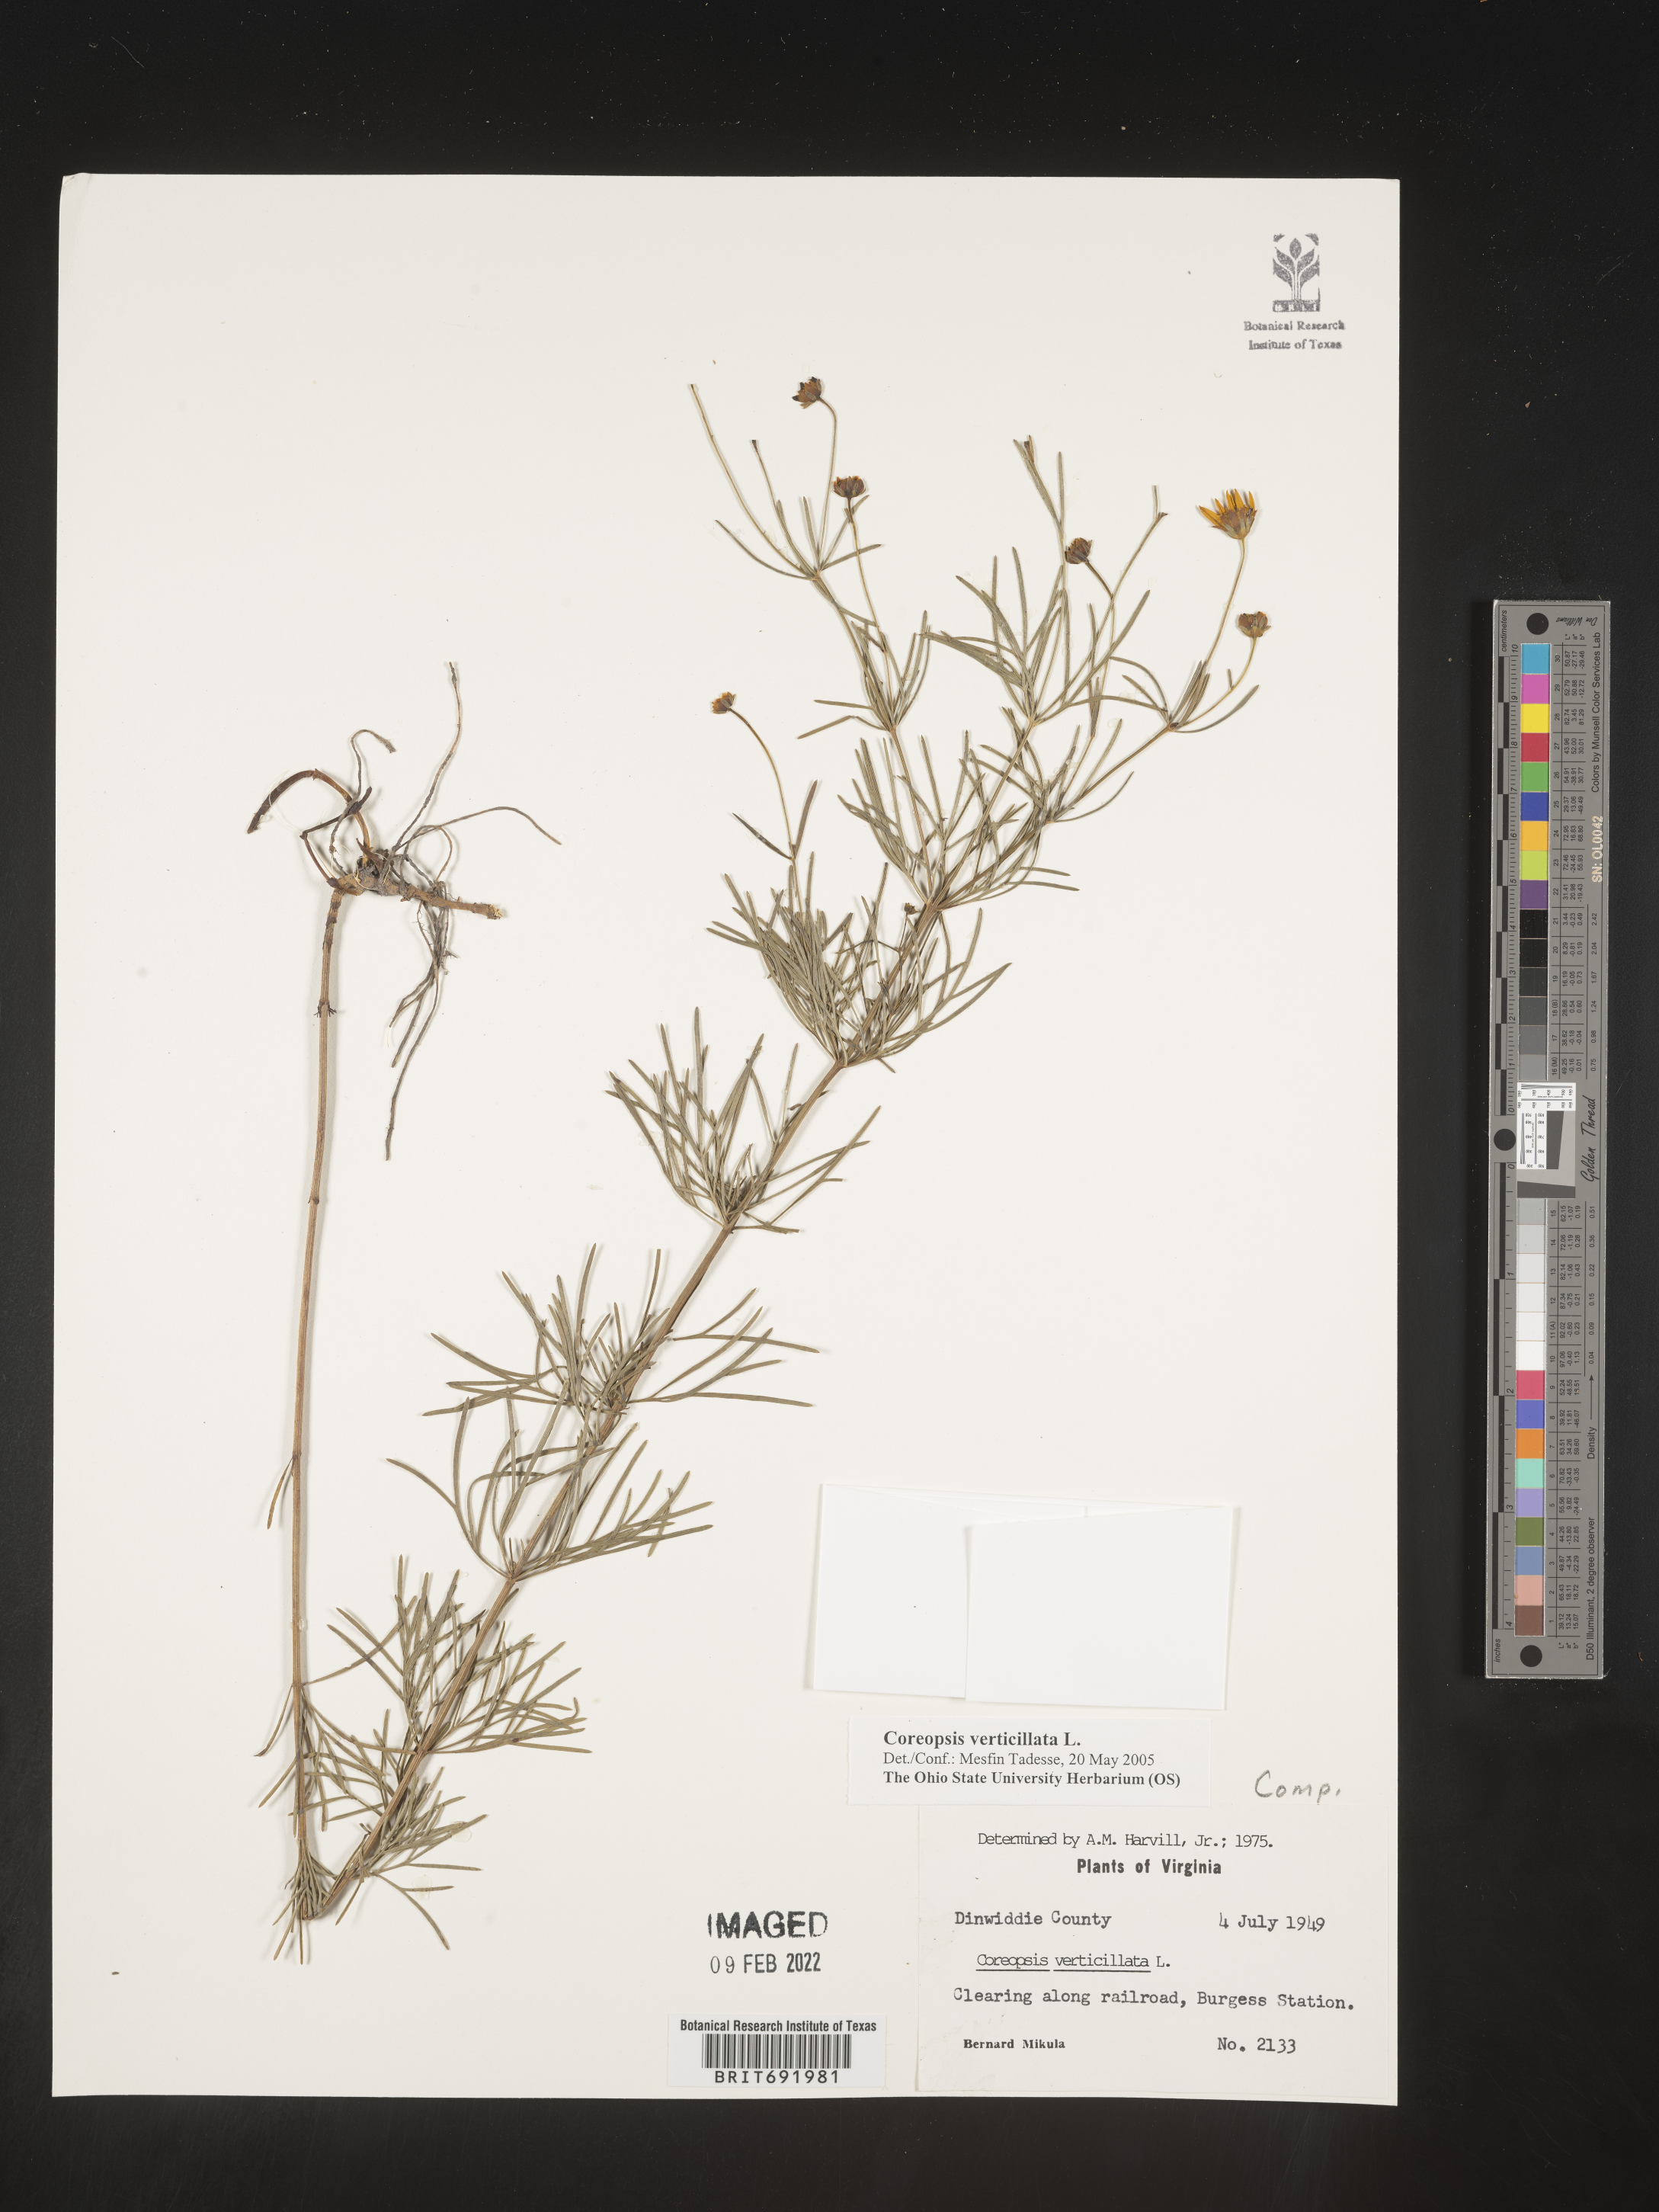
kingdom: Plantae
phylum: Tracheophyta
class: Magnoliopsida
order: Asterales
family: Asteraceae
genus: Coreopsis
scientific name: Coreopsis verticillata
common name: Whorled tickseed
